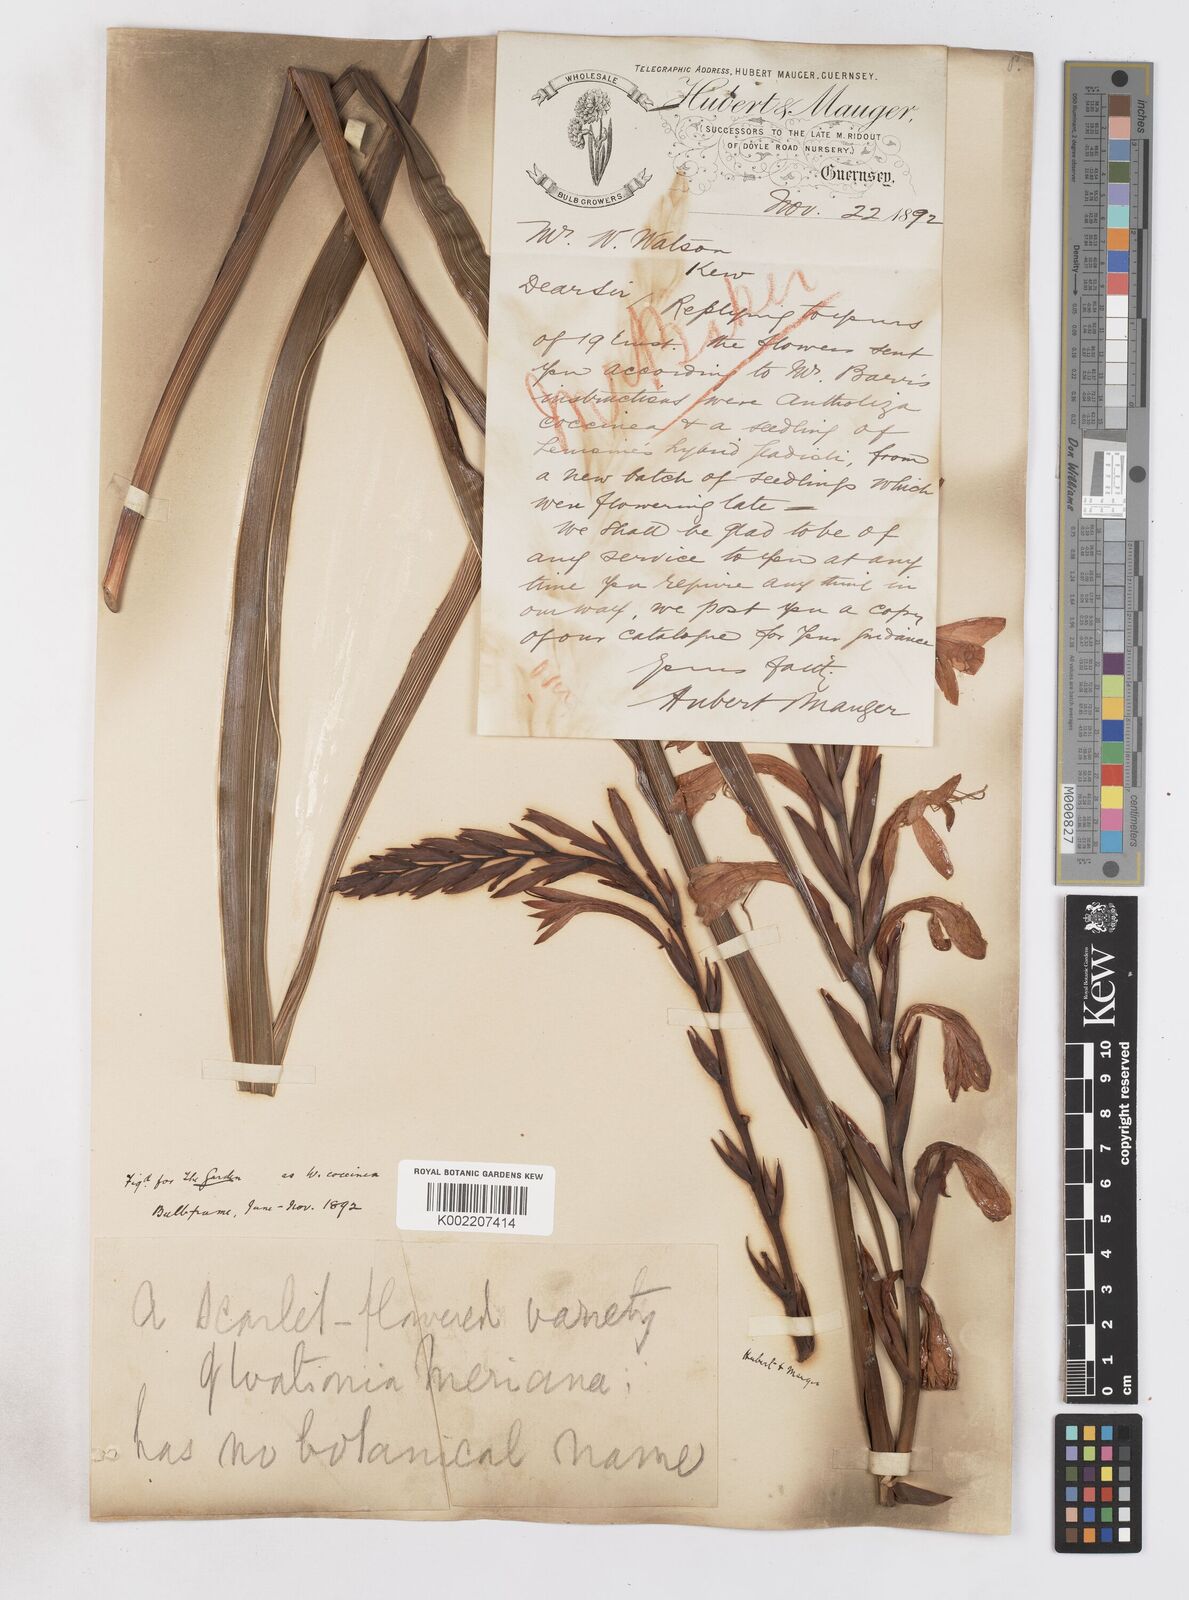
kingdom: Plantae
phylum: Tracheophyta
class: Liliopsida
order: Asparagales
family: Iridaceae
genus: Watsonia
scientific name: Watsonia pillansii
